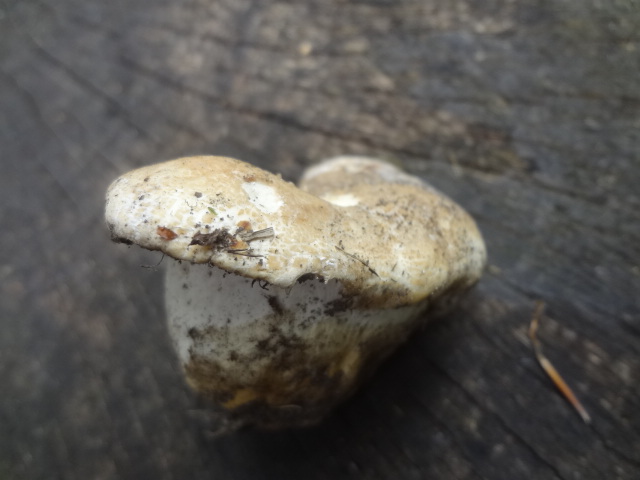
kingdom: Fungi
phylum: Basidiomycota
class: Agaricomycetes
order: Russulales
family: Russulaceae
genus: Russula
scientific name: Russula virescens
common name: spanskgrøn skørhat
